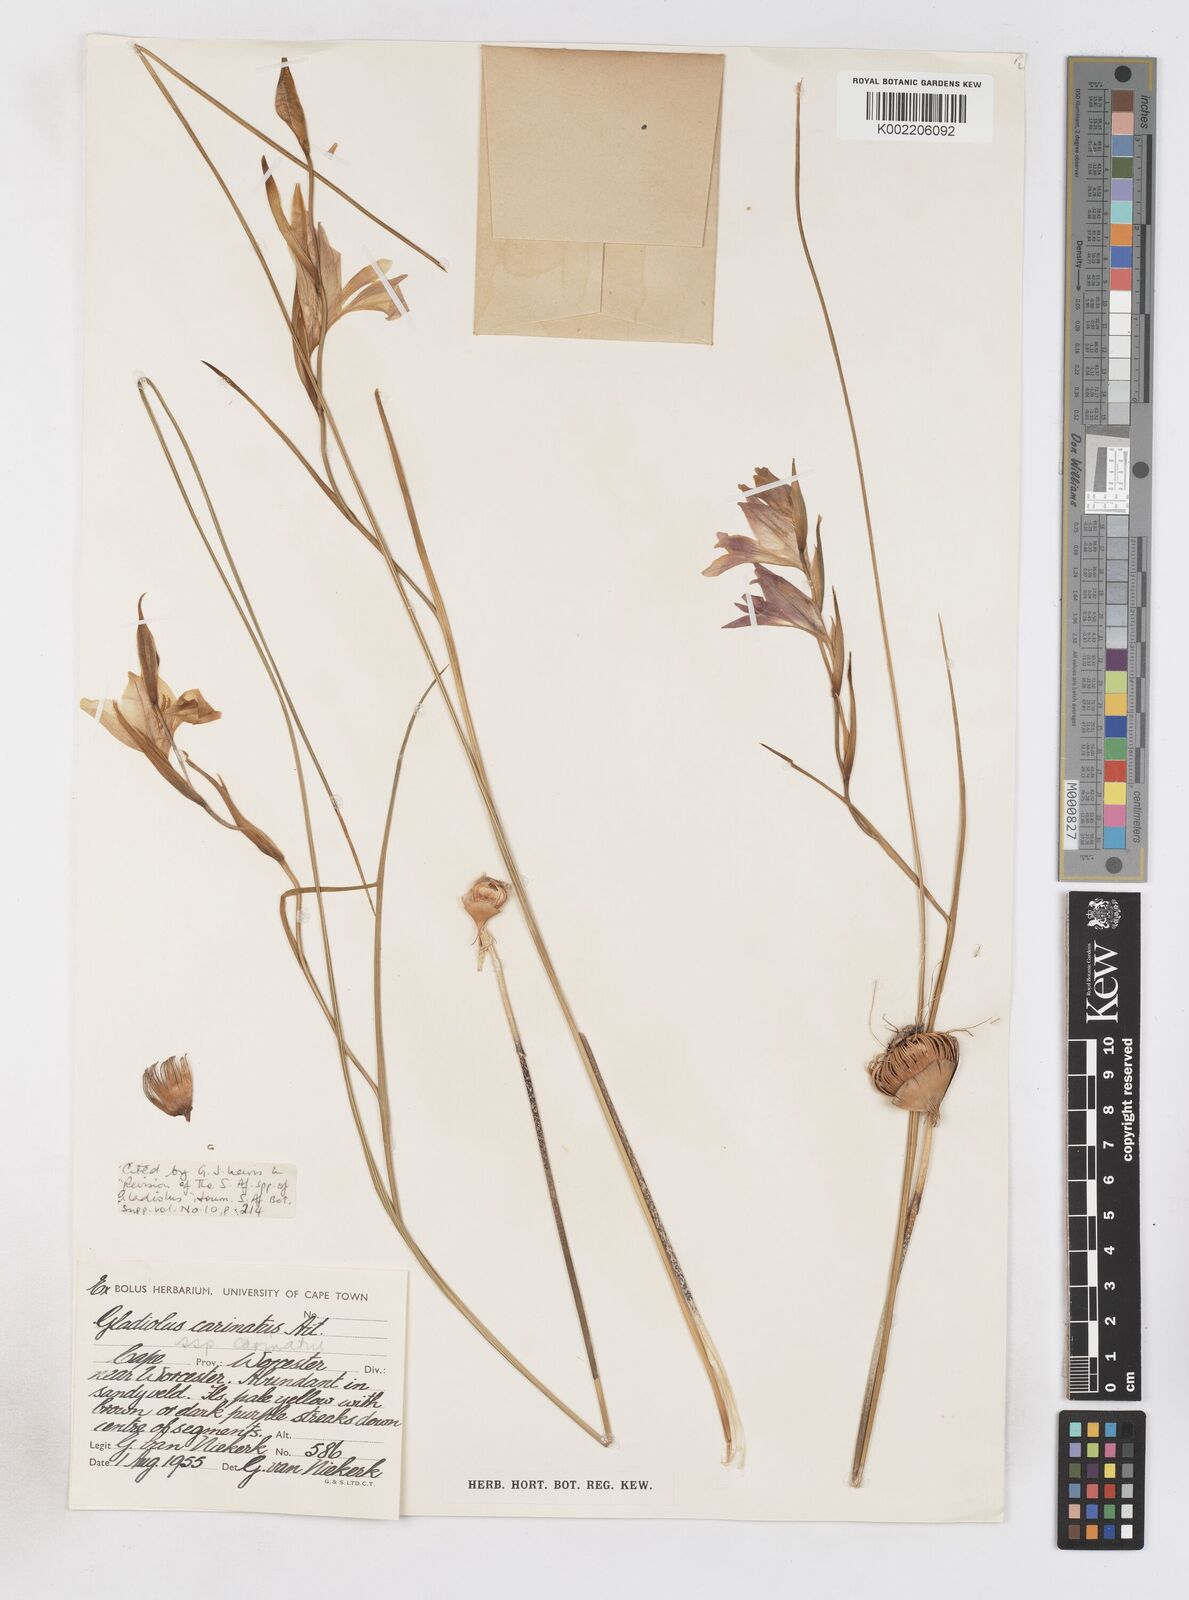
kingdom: Plantae
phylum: Tracheophyta
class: Liliopsida
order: Asparagales
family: Iridaceae
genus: Gladiolus
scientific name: Gladiolus carinatus
